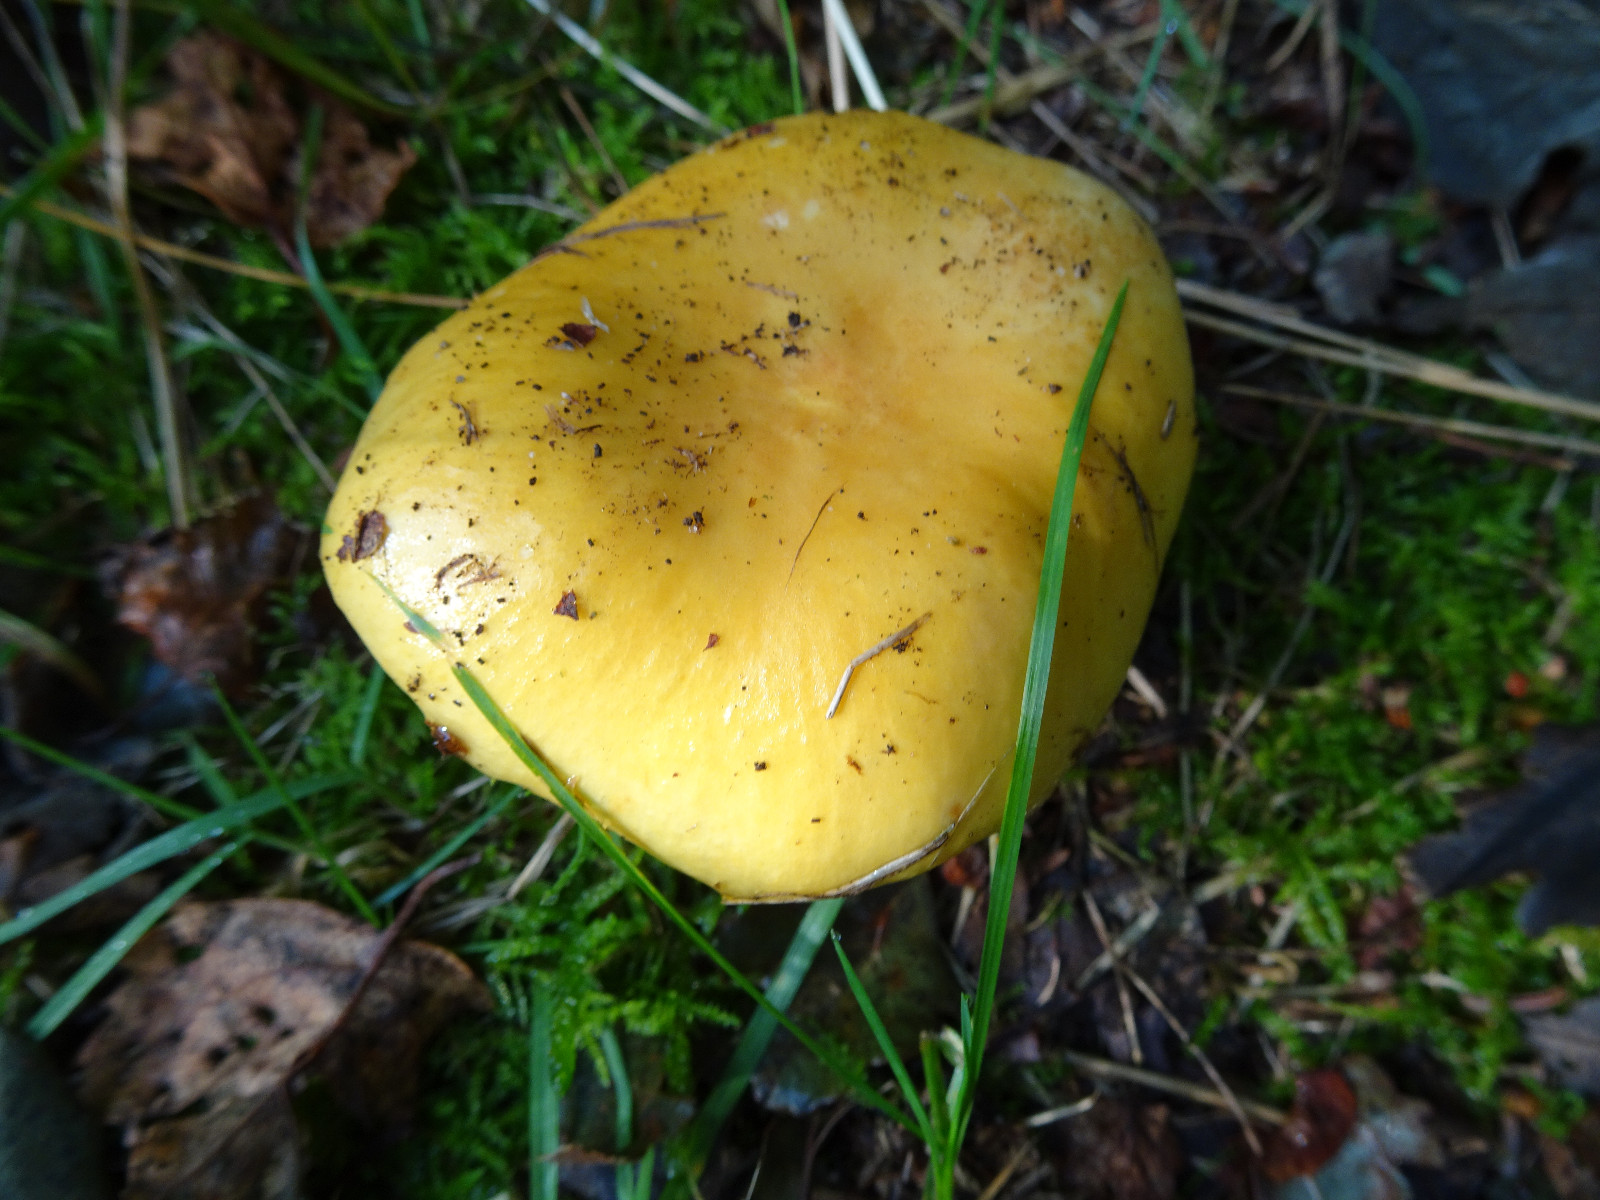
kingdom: Fungi
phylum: Basidiomycota
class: Agaricomycetes
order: Russulales
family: Russulaceae
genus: Russula
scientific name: Russula ochroleuca
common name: okkergul skørhat
